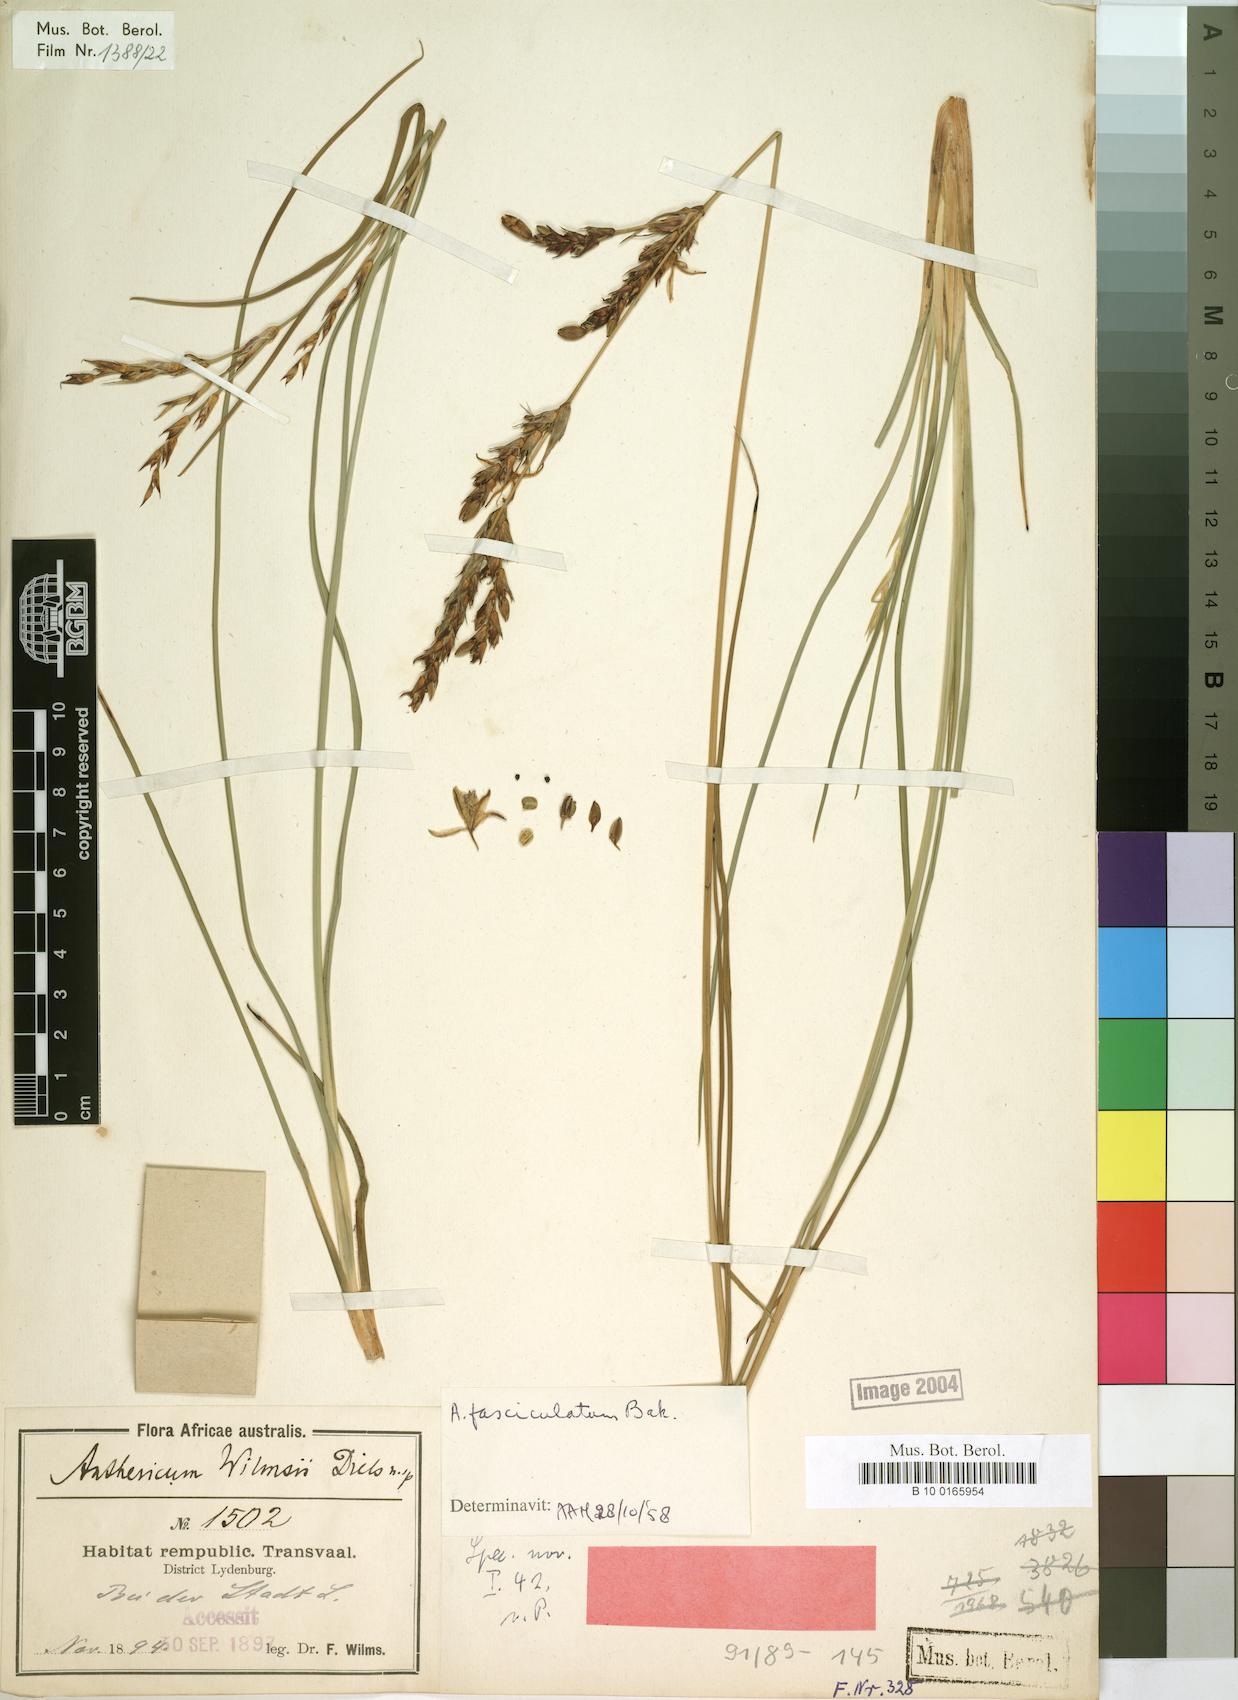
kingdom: Plantae
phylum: Tracheophyta
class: Liliopsida
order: Asparagales
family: Asparagaceae
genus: Chlorophytum
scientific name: Chlorophytum fasciculatum
